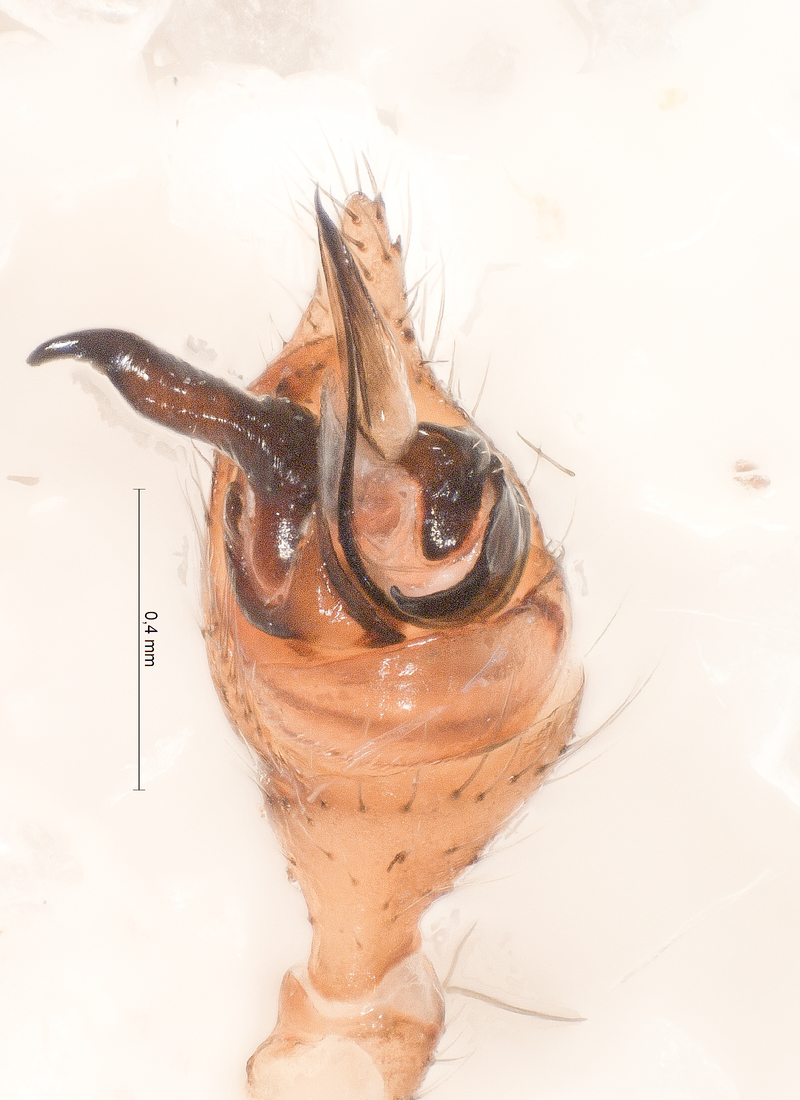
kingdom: Animalia
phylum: Arthropoda
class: Arachnida
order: Araneae
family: Theridiidae
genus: Steatoda
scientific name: Steatoda albomaculata
